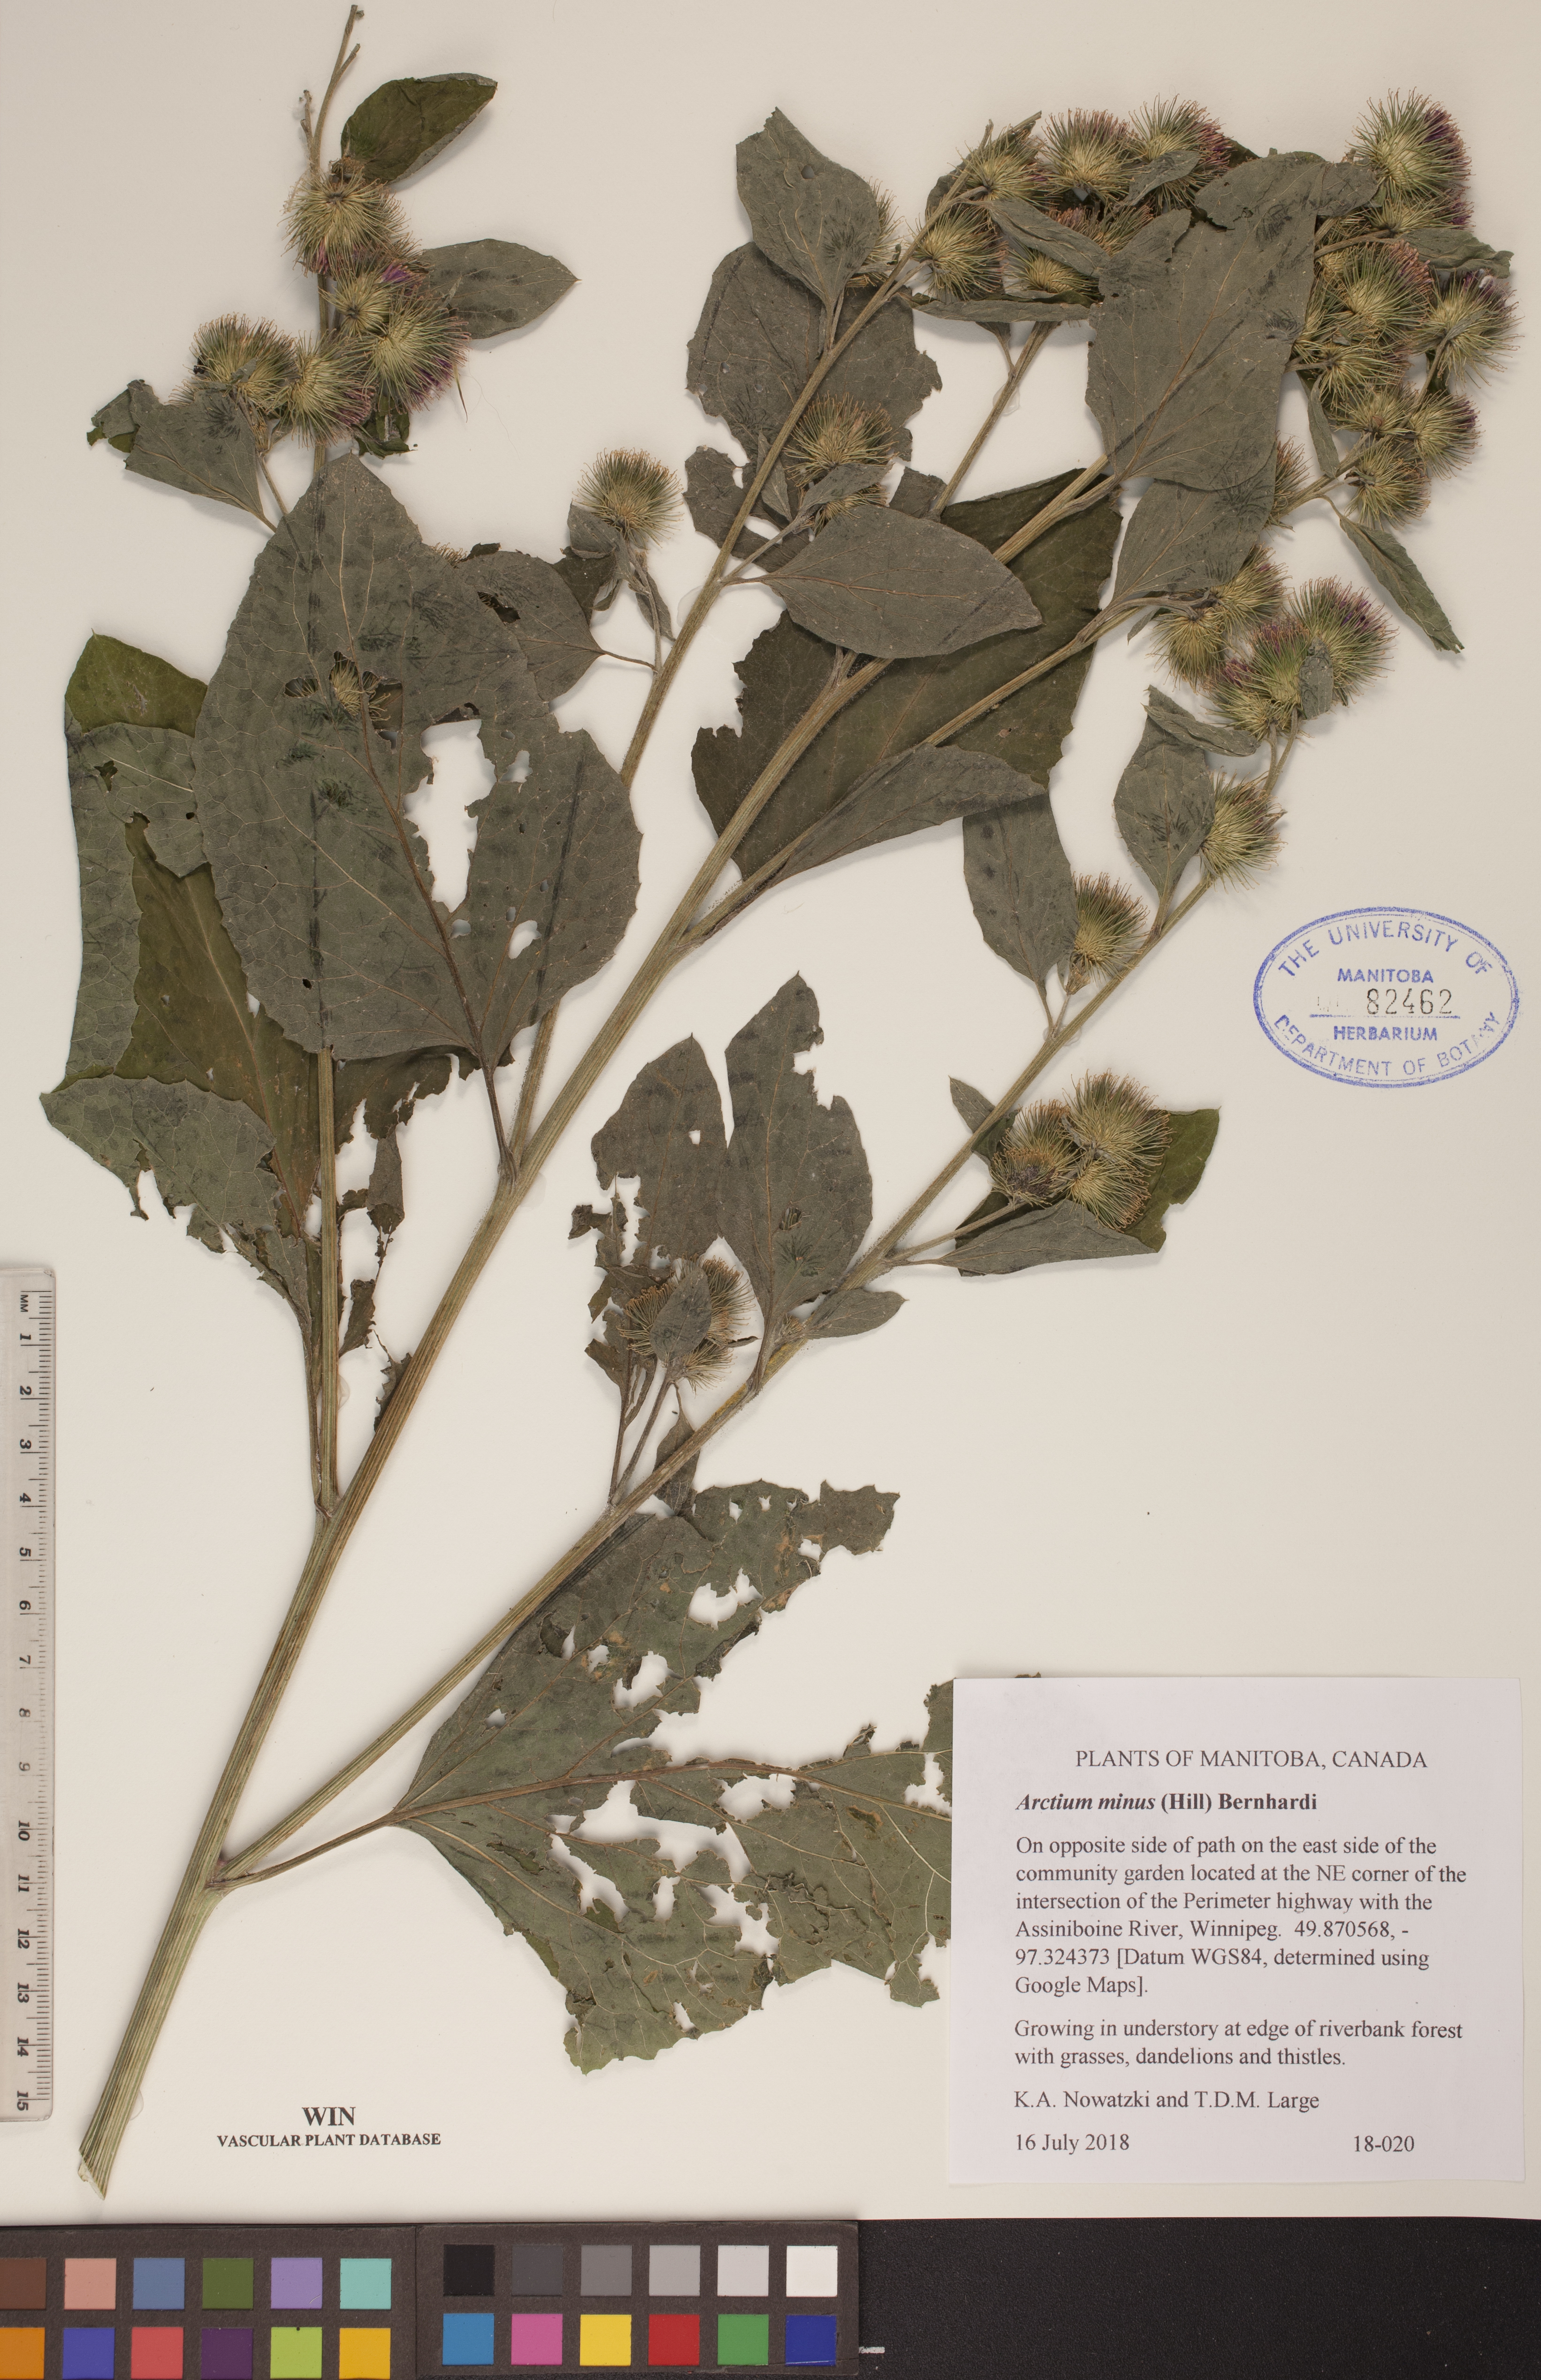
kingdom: Plantae
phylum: Tracheophyta
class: Magnoliopsida
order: Asterales
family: Asteraceae
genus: Arctium
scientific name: Arctium minus
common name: Lesser burdock
